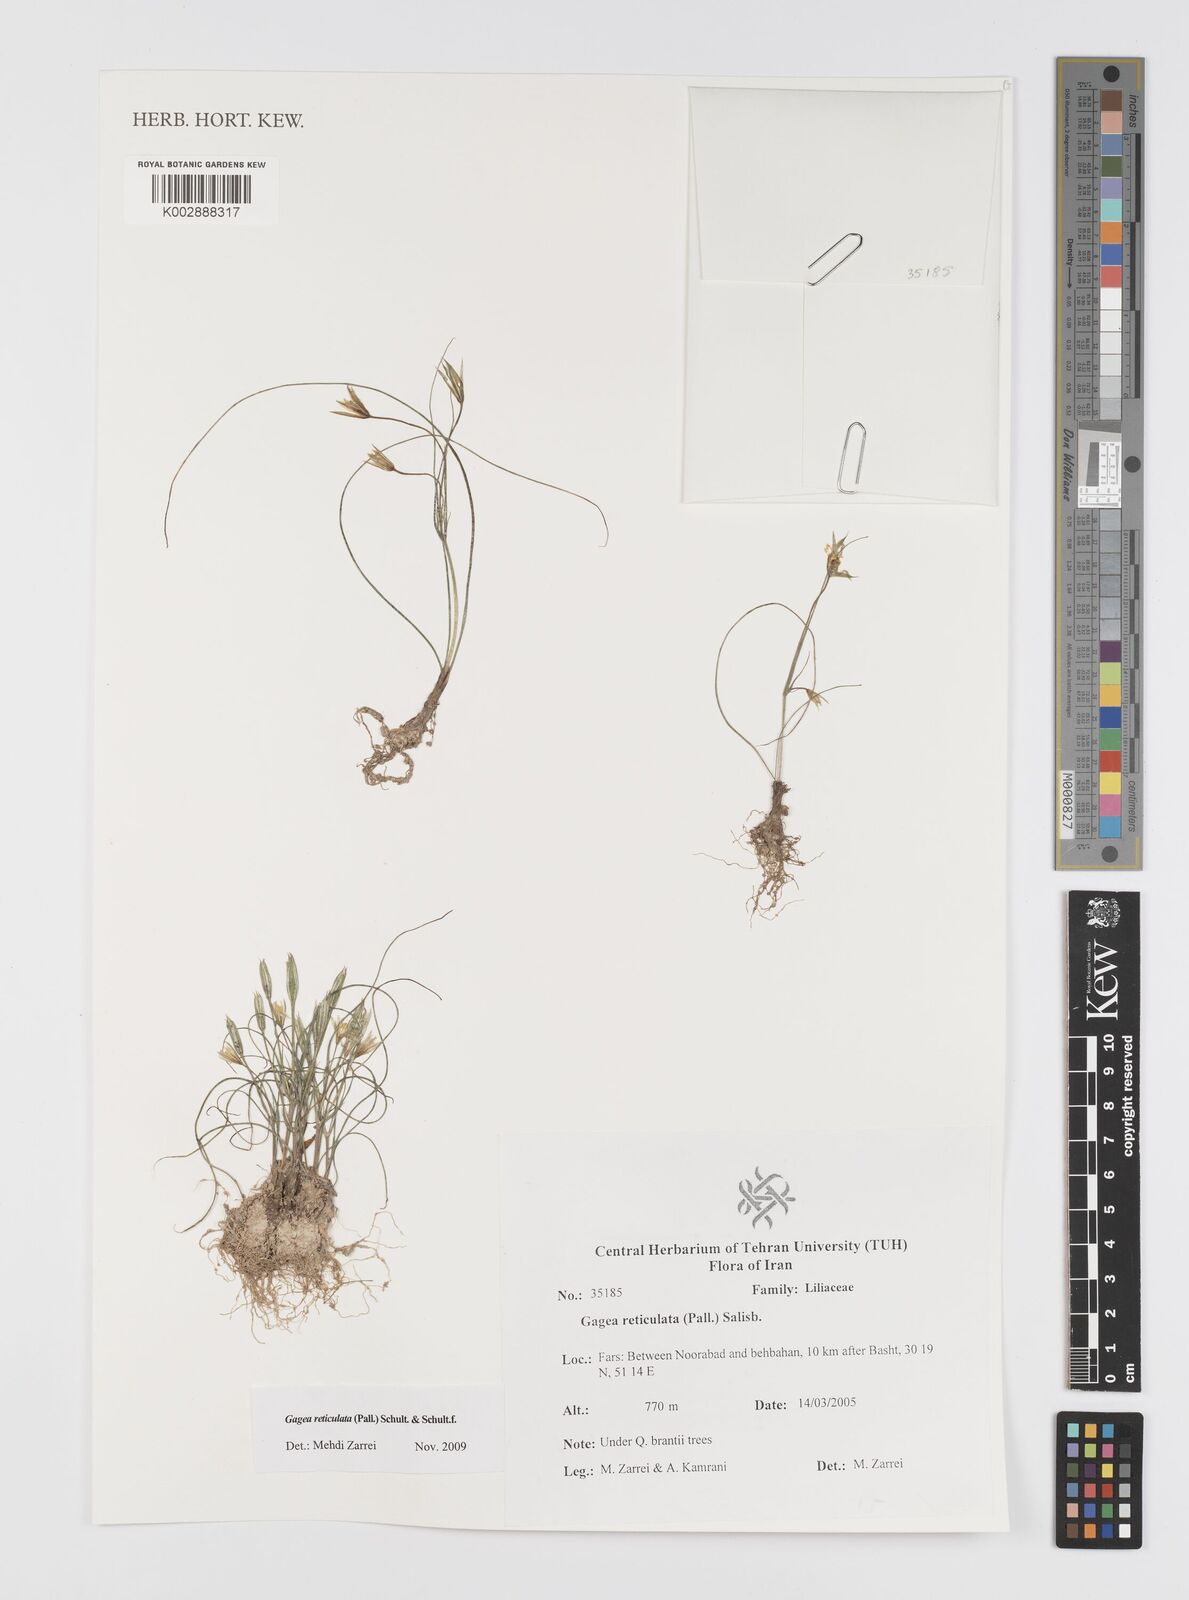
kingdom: Plantae
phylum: Tracheophyta
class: Liliopsida
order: Liliales
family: Liliaceae
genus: Gagea
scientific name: Gagea reticulata
